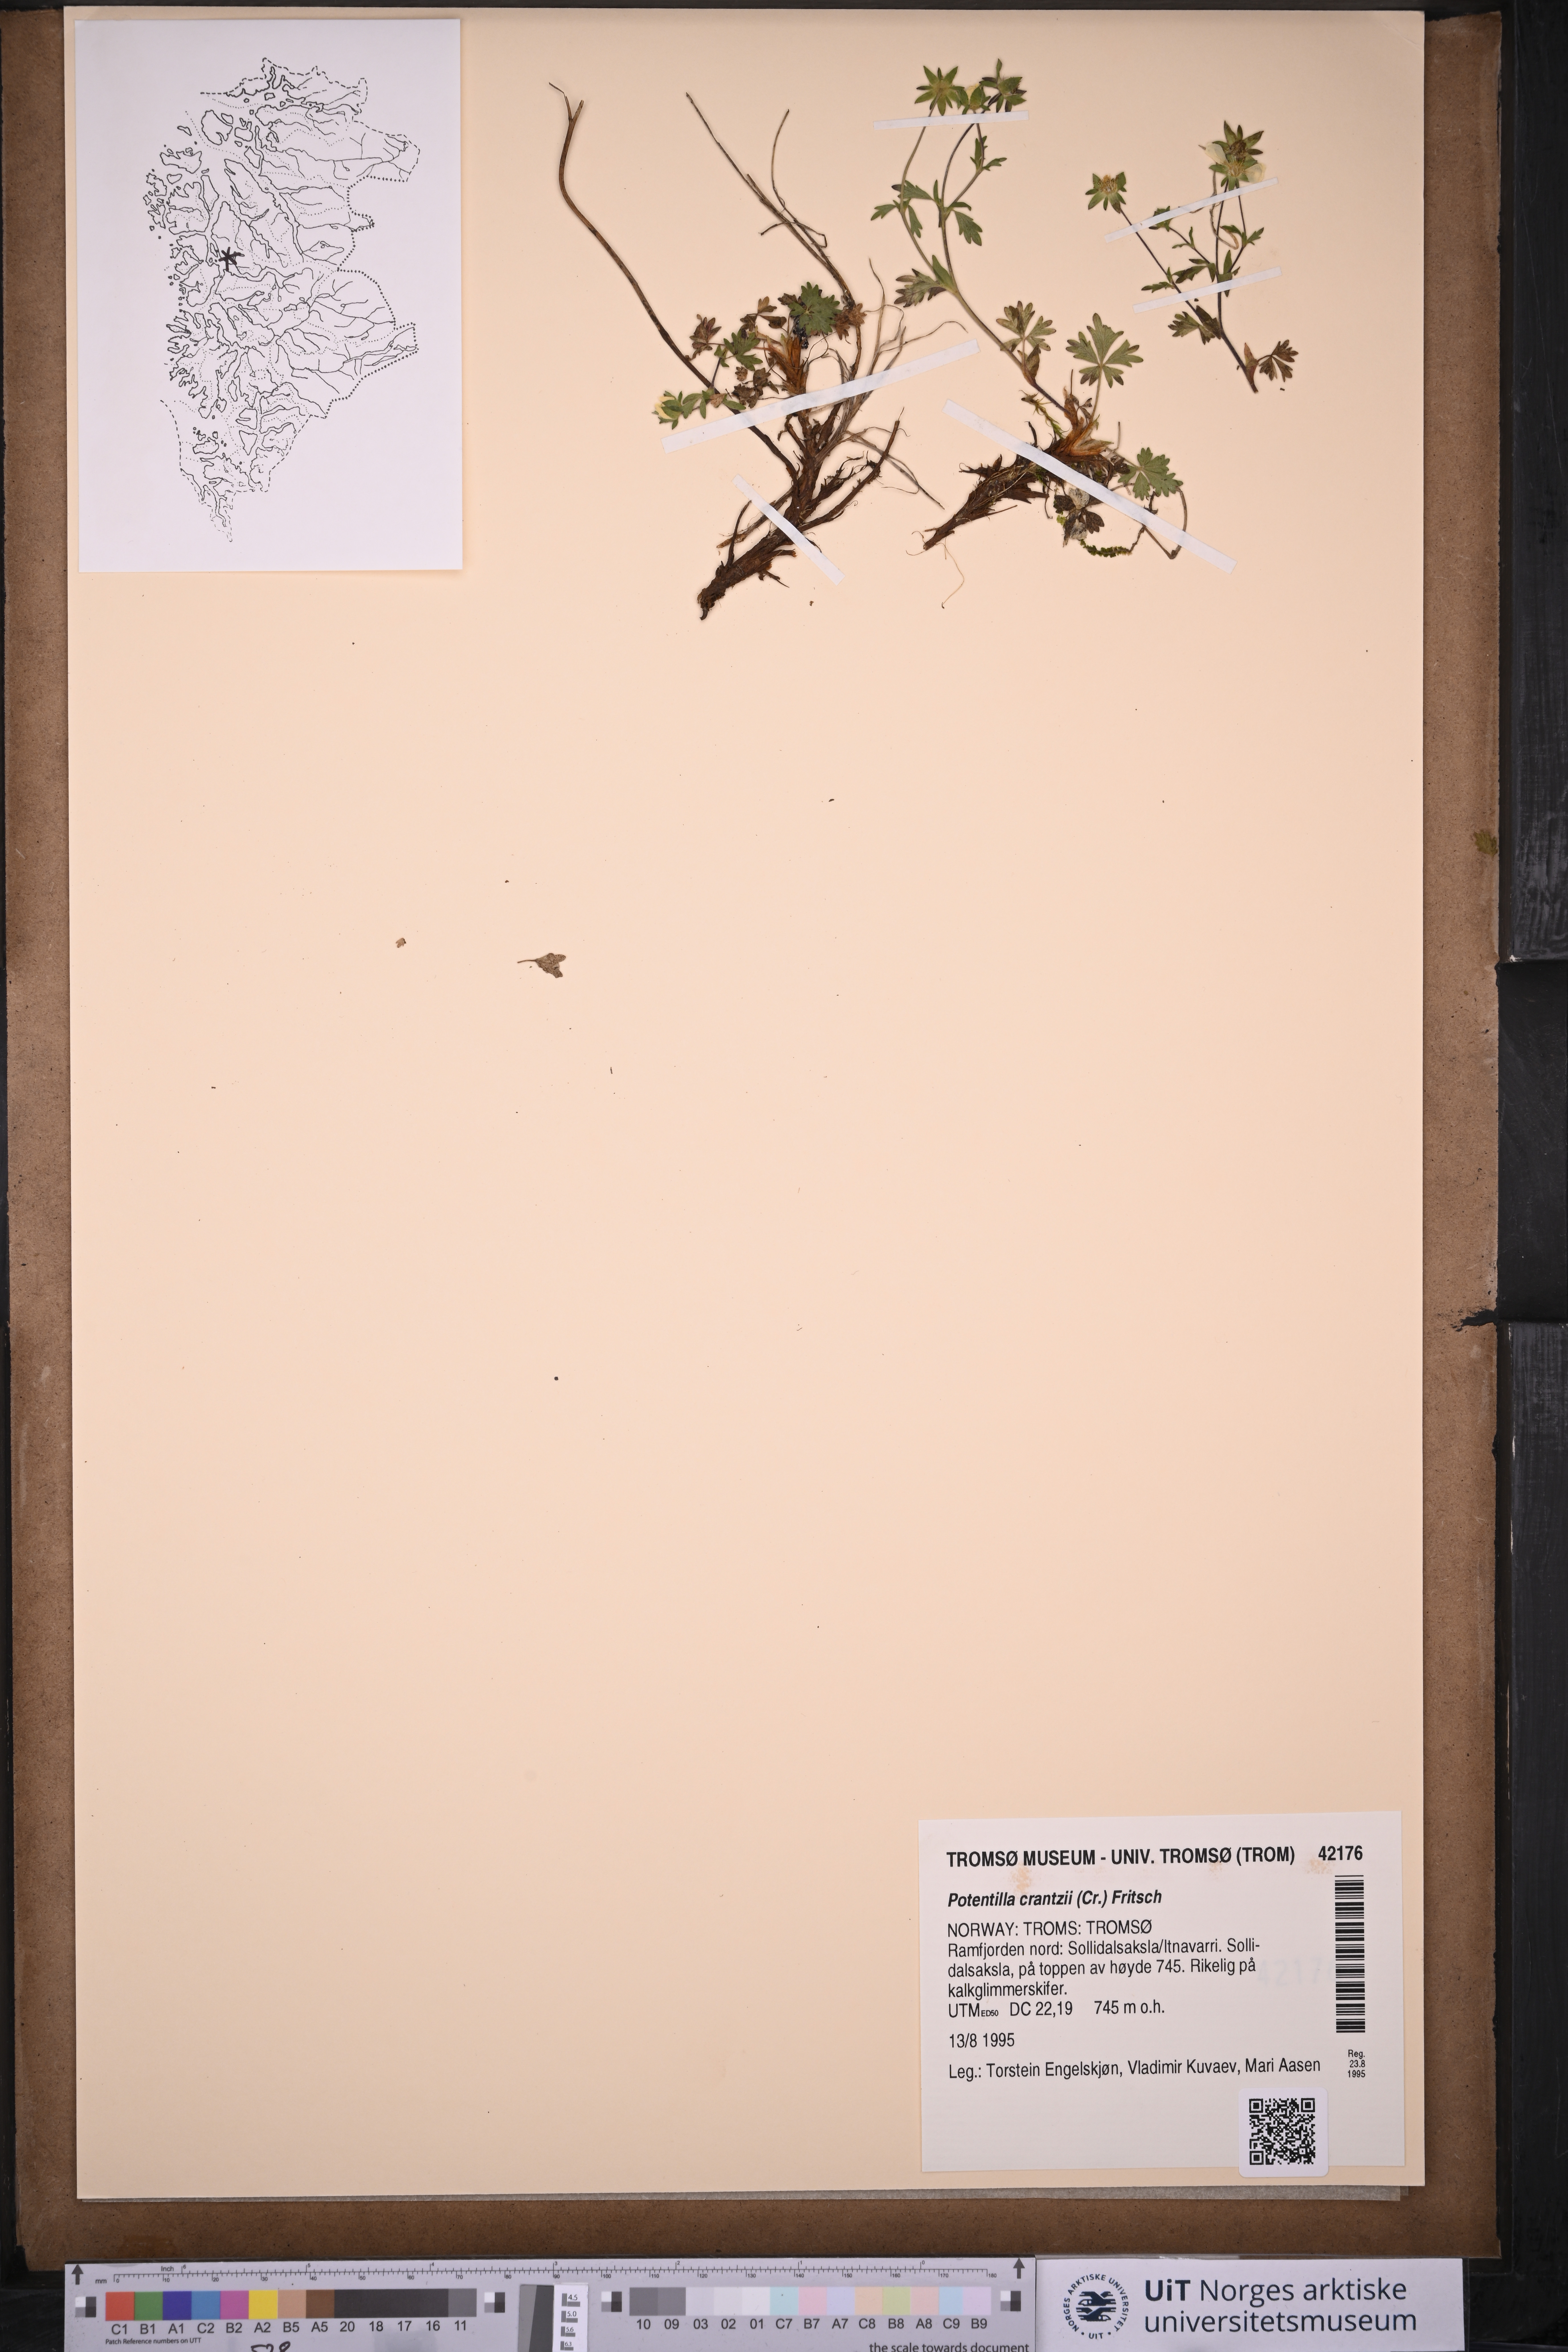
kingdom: Plantae
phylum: Tracheophyta
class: Magnoliopsida
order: Rosales
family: Rosaceae
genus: Potentilla
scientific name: Potentilla crantzii
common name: Alpine cinquefoil
